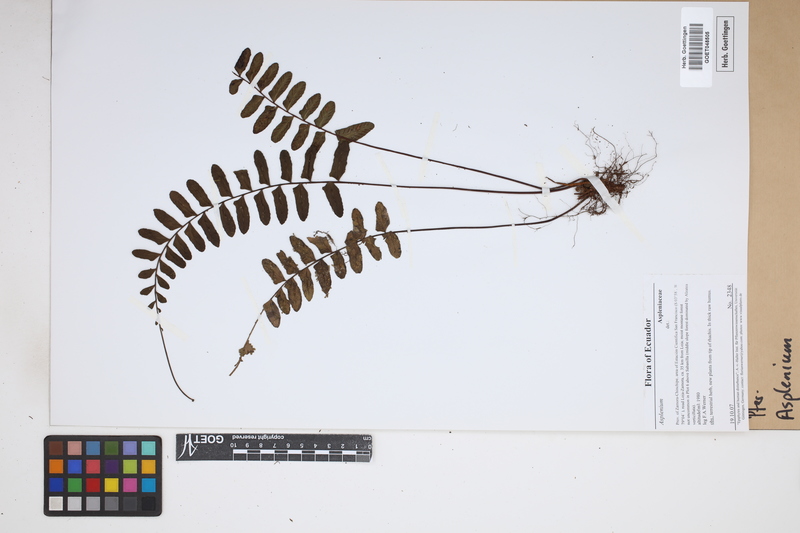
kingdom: Plantae
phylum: Tracheophyta
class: Polypodiopsida
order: Polypodiales
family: Aspleniaceae
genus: Asplenium
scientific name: Asplenium
